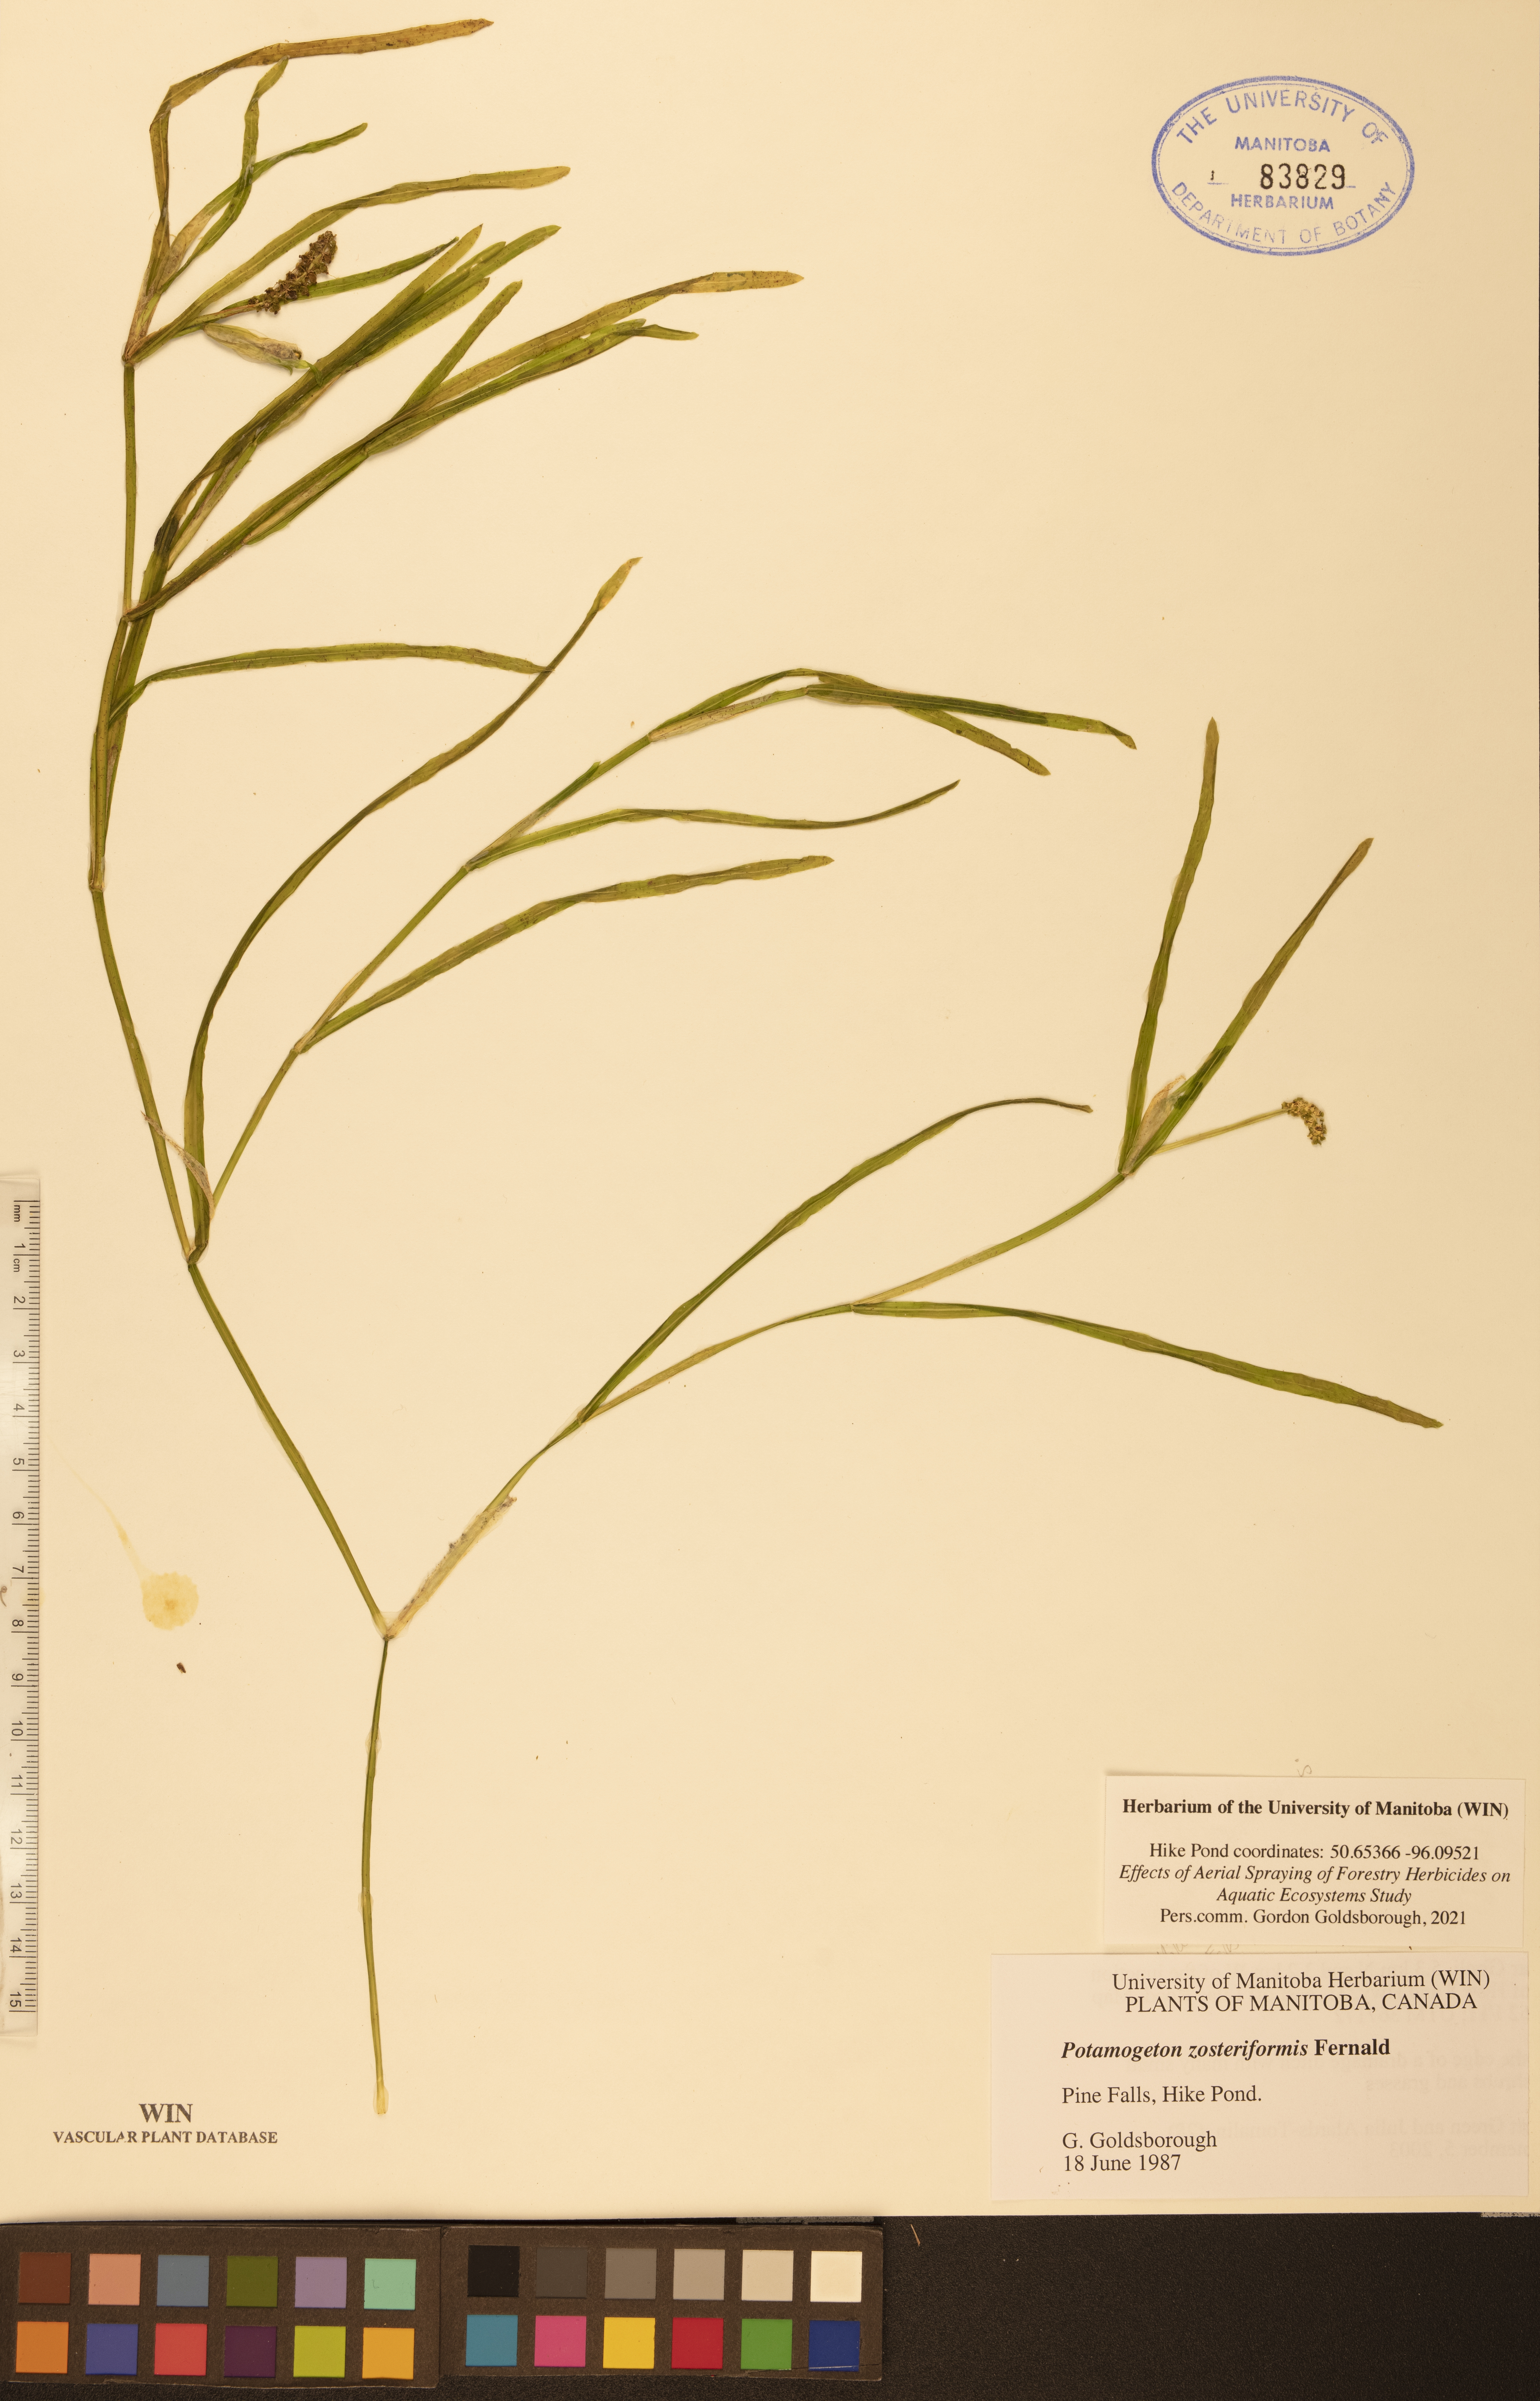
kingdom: Plantae
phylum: Tracheophyta
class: Liliopsida
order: Alismatales
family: Potamogetonaceae
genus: Potamogeton
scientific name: Potamogeton zosteriformis
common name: Eelgrass pondweed
